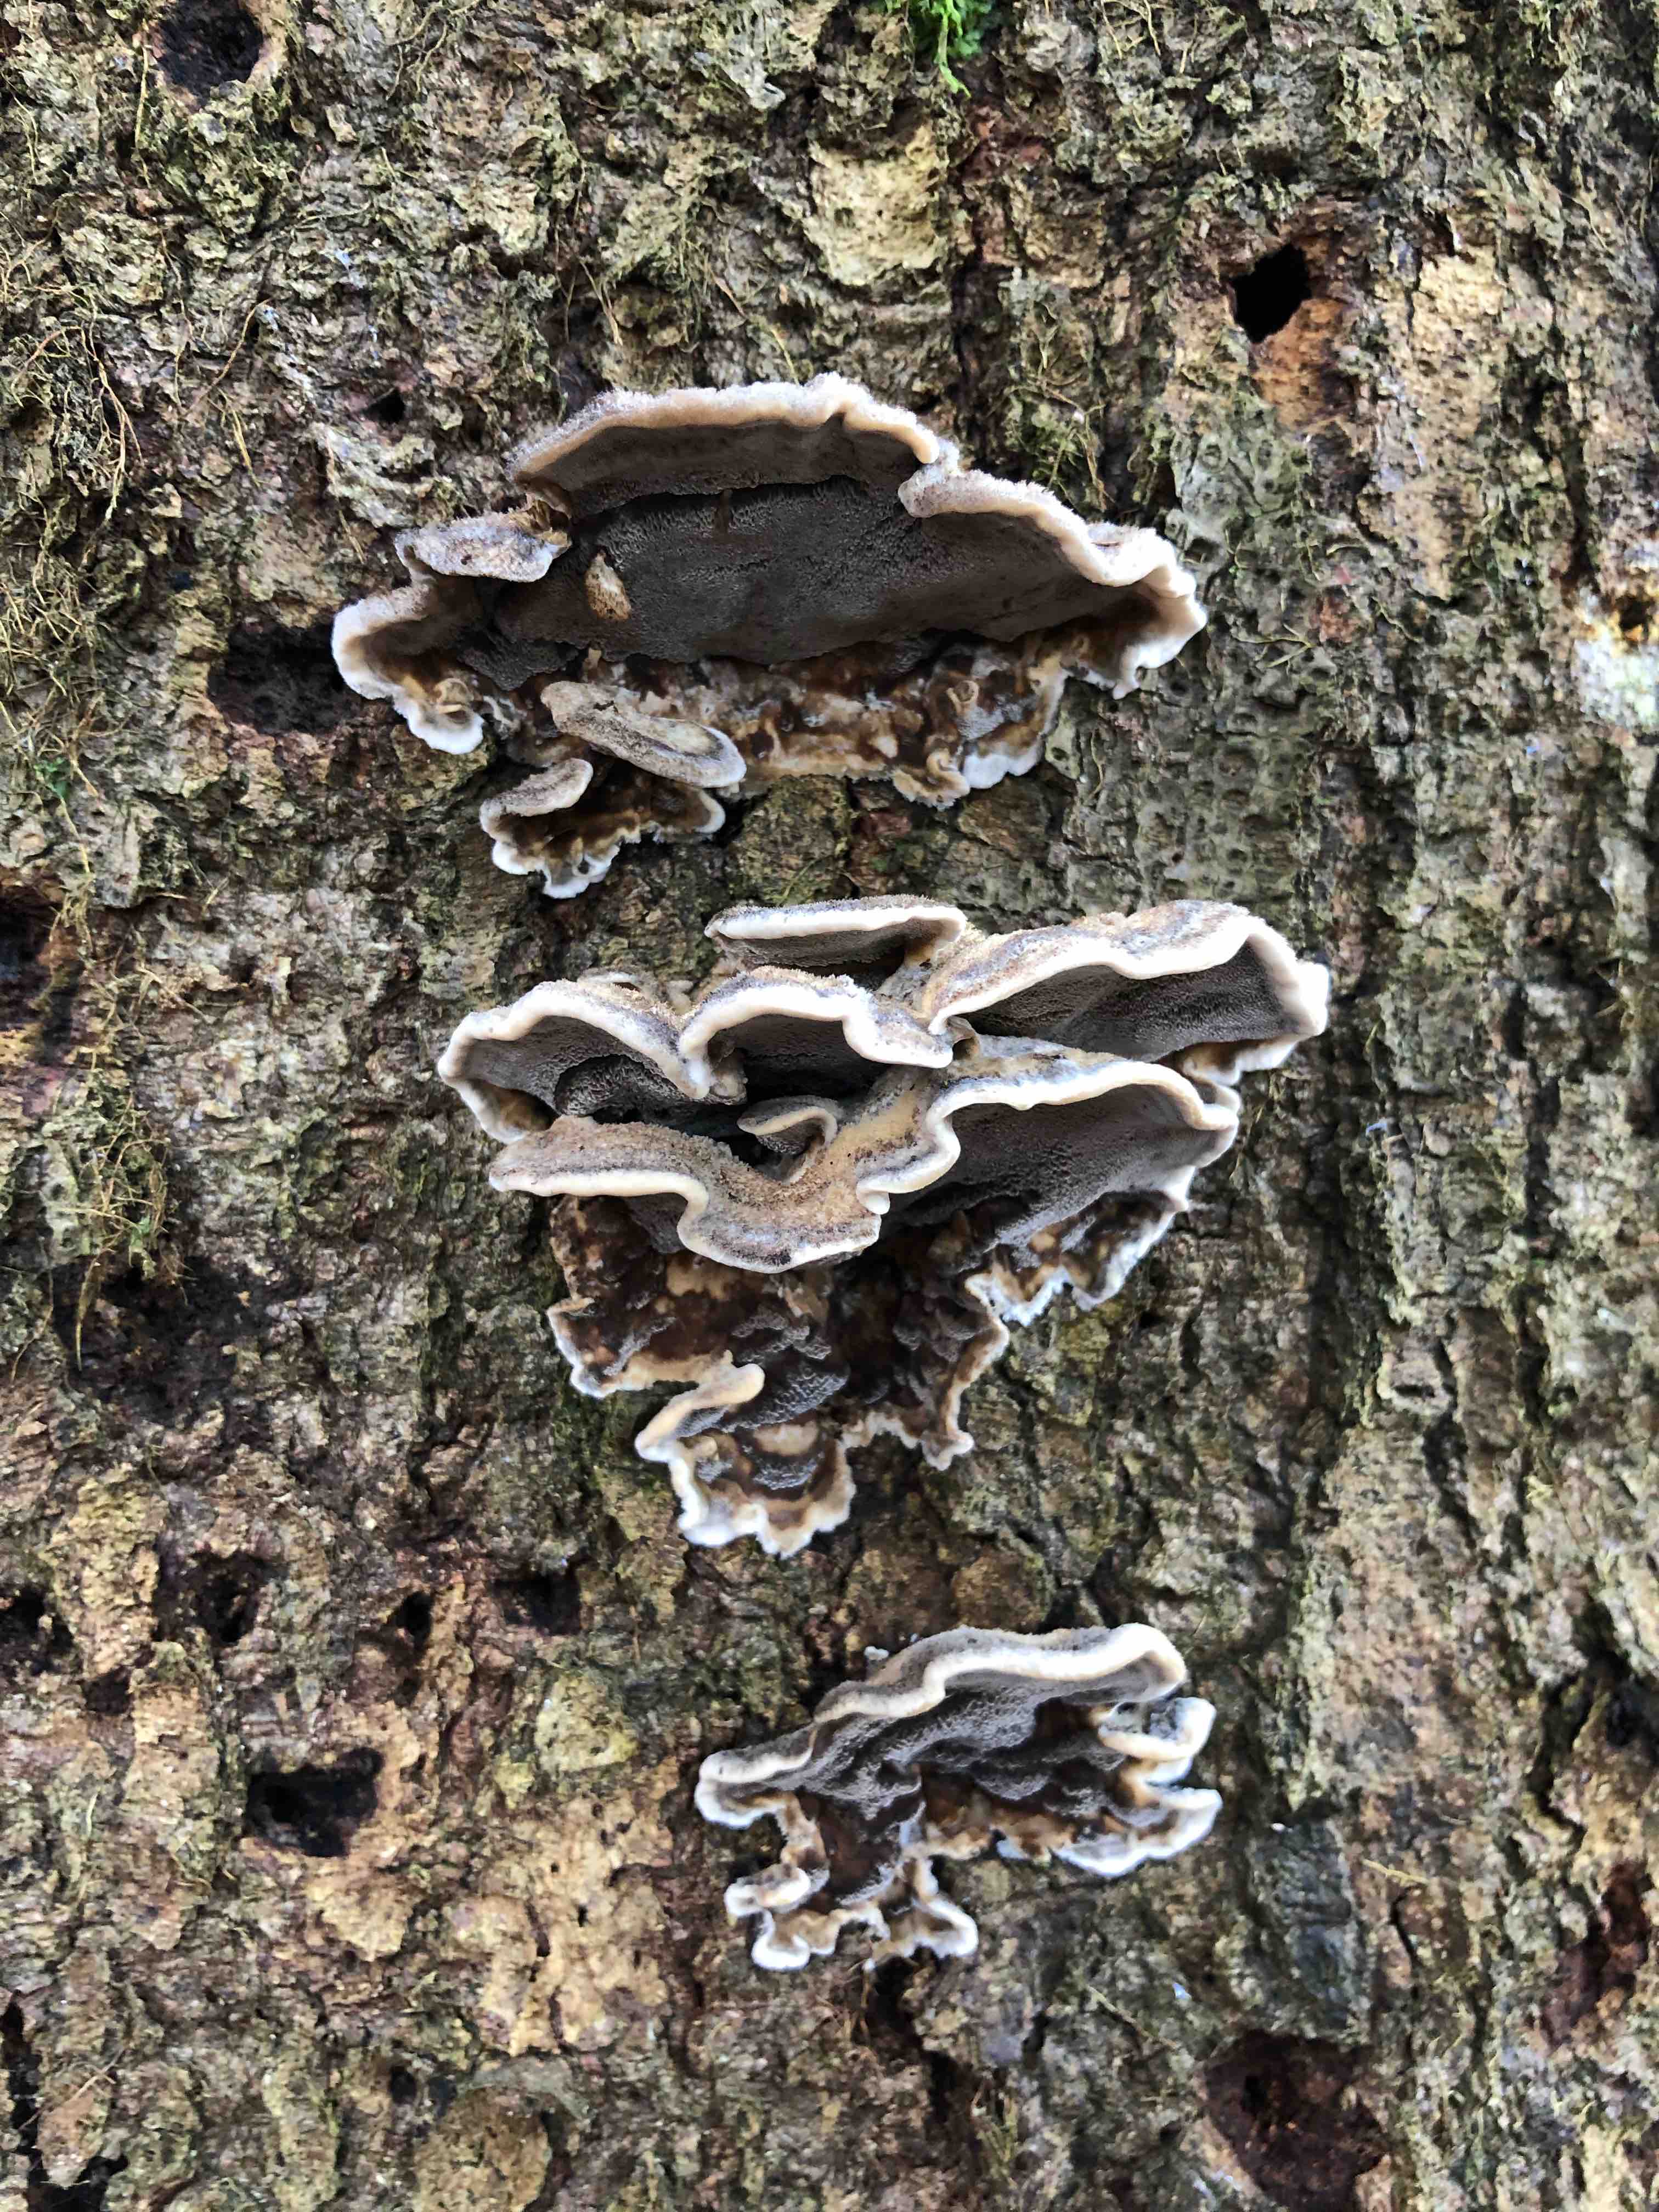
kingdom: Fungi
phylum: Basidiomycota
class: Agaricomycetes
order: Polyporales
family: Phanerochaetaceae
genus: Bjerkandera
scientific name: Bjerkandera adusta
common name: sveden sodporesvamp
